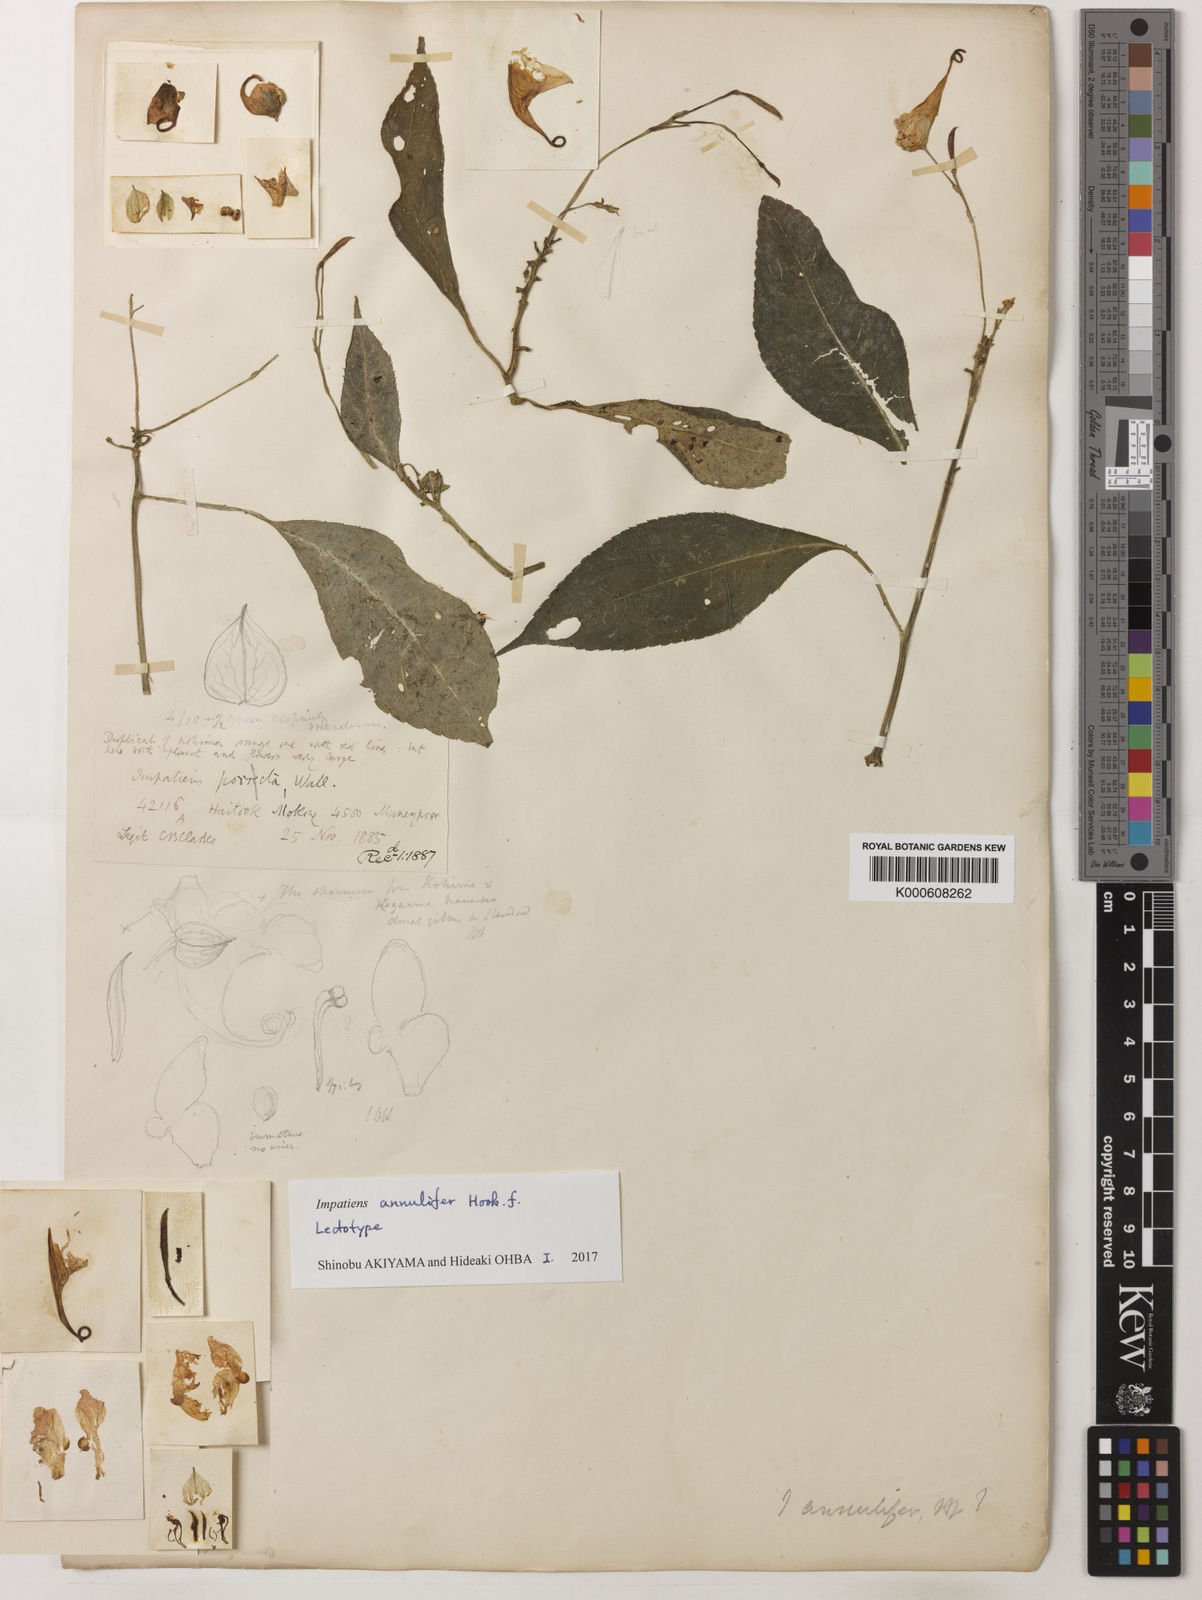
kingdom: Plantae
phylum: Tracheophyta
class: Magnoliopsida
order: Ericales
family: Balsaminaceae
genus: Impatiens
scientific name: Impatiens pulchra
